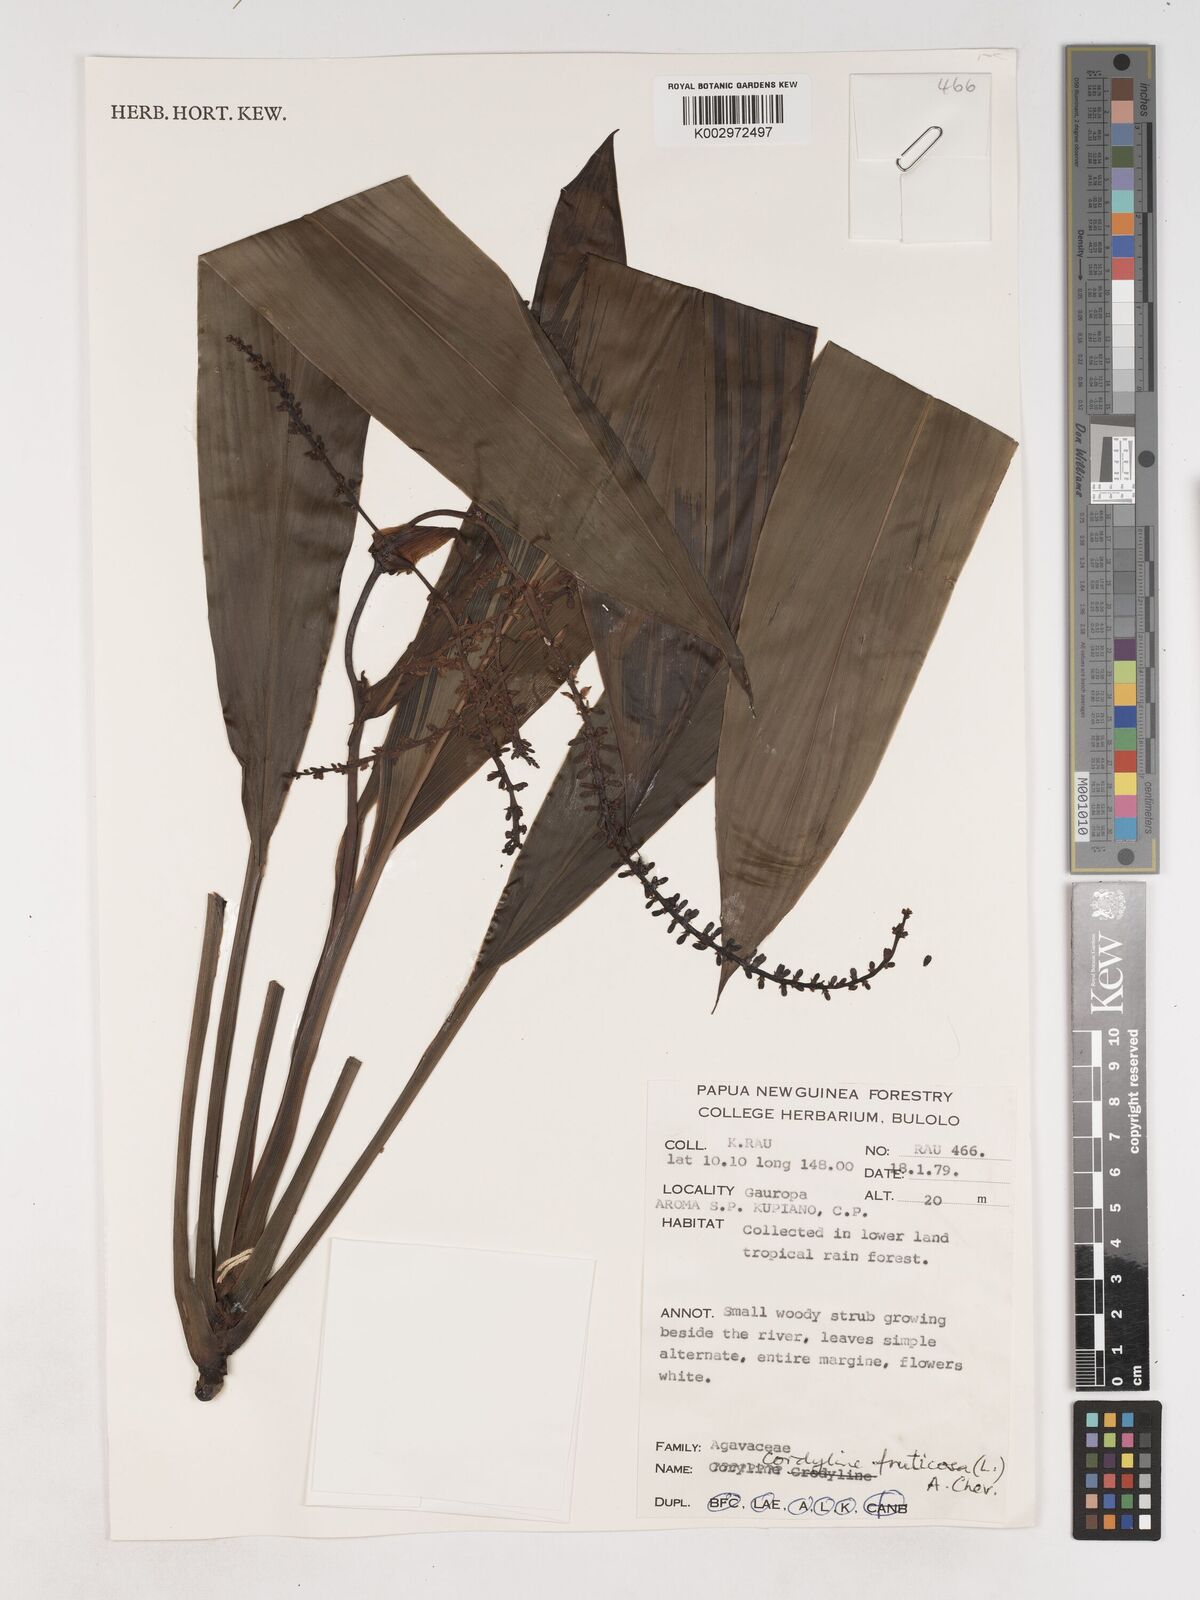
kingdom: Plantae
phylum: Tracheophyta
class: Liliopsida
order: Asparagales
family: Asparagaceae
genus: Cordyline
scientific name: Cordyline fruticosa
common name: Good-luck-plant
